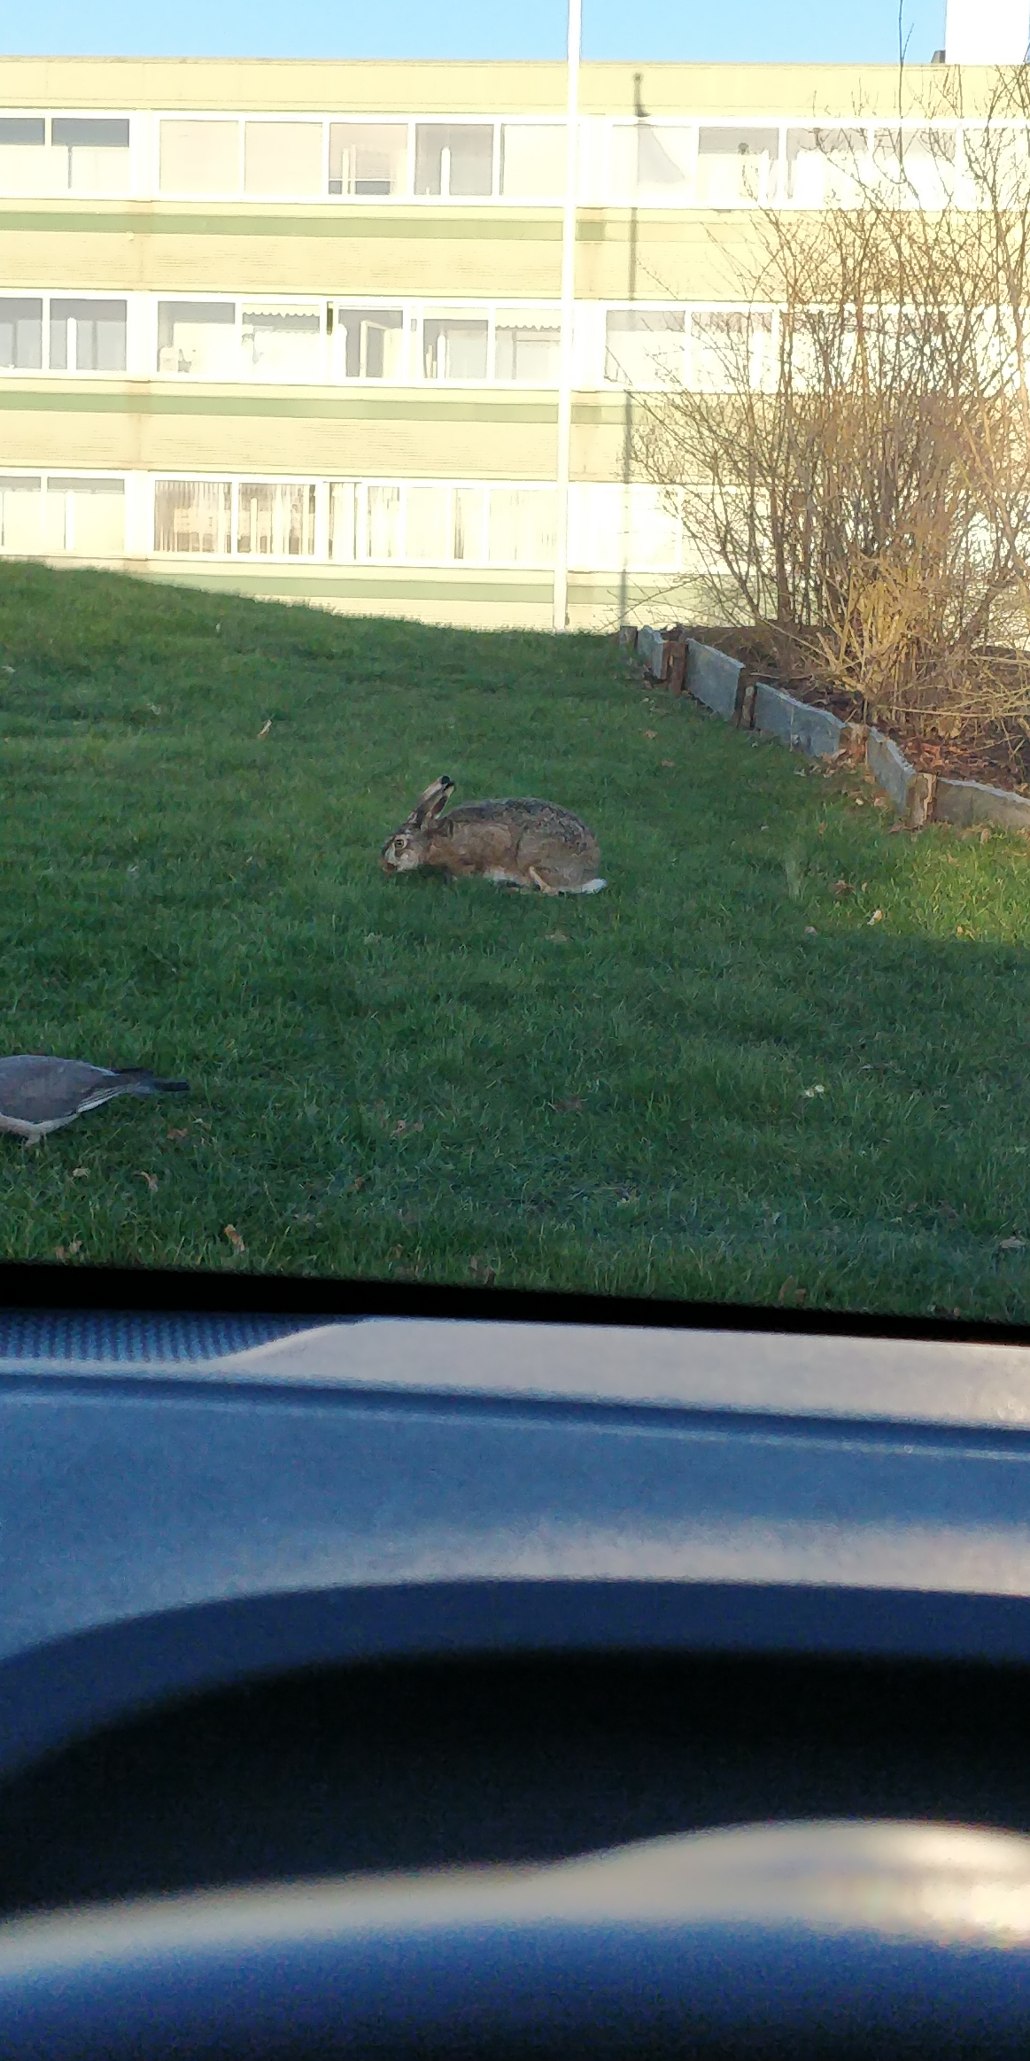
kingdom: Animalia
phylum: Chordata
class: Mammalia
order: Lagomorpha
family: Leporidae
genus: Lepus
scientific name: Lepus europaeus
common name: Hare
